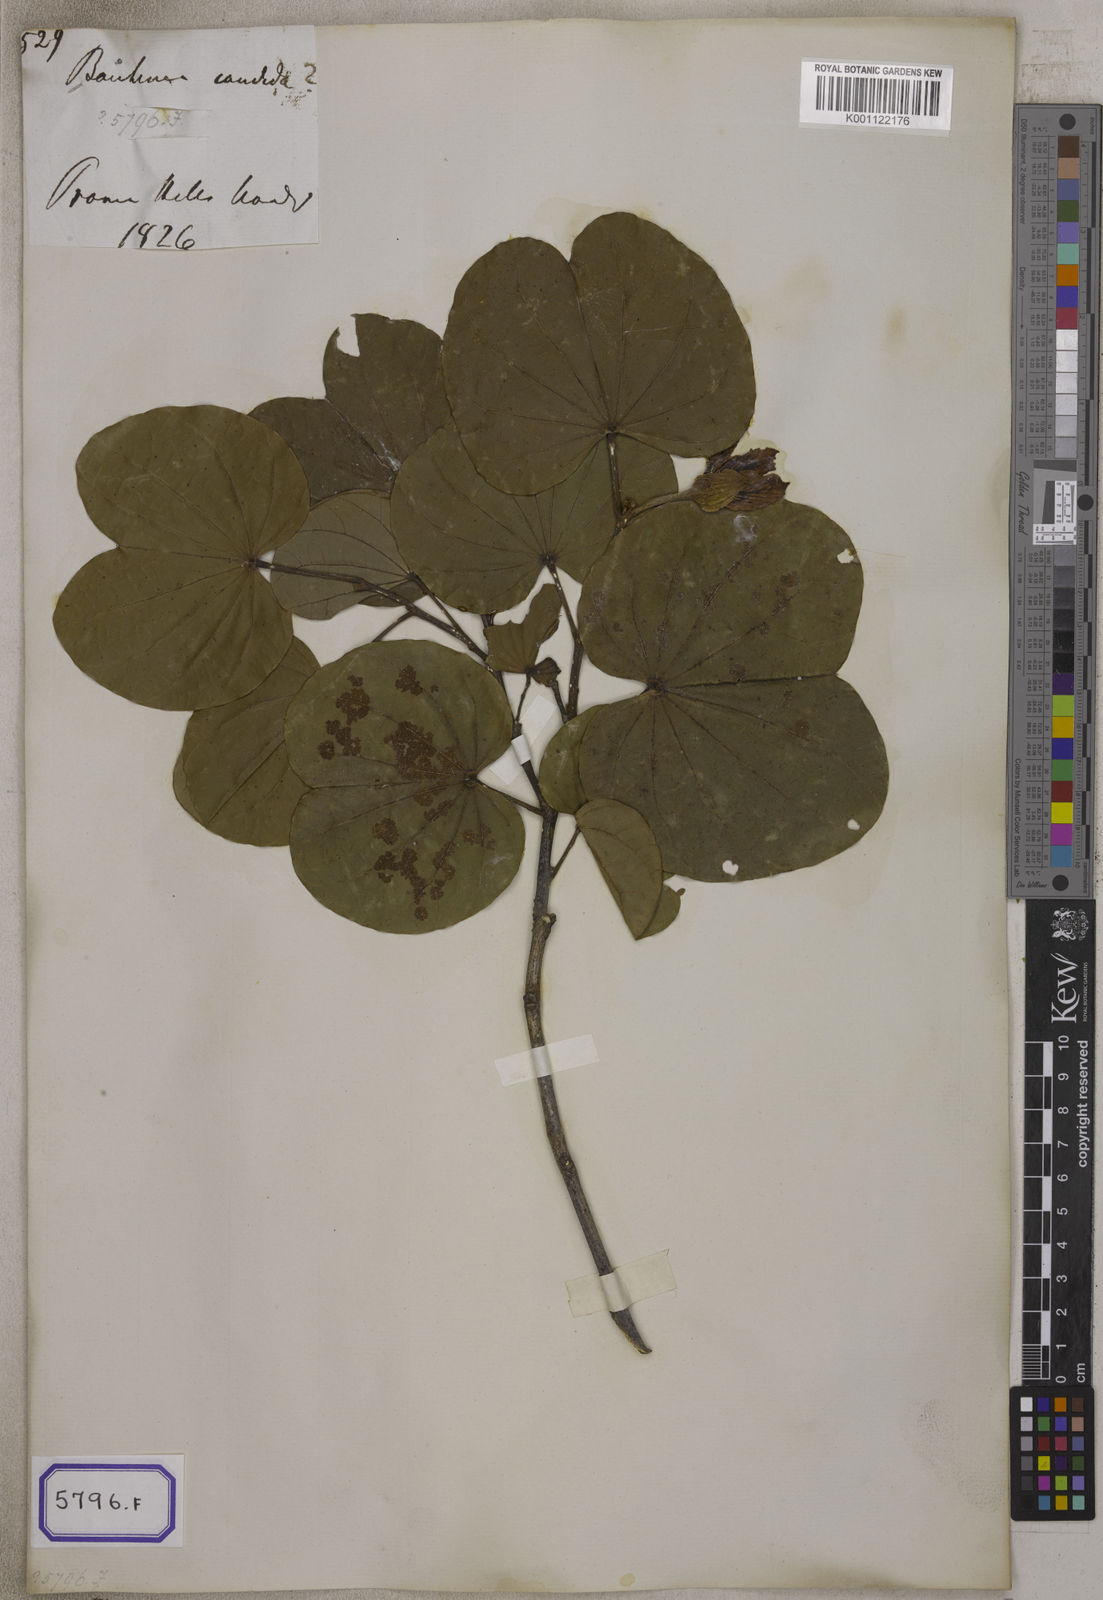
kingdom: Plantae
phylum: Tracheophyta
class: Magnoliopsida
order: Fabales
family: Fabaceae
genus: Bauhinia
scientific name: Bauhinia variegata
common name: Mountain ebony
